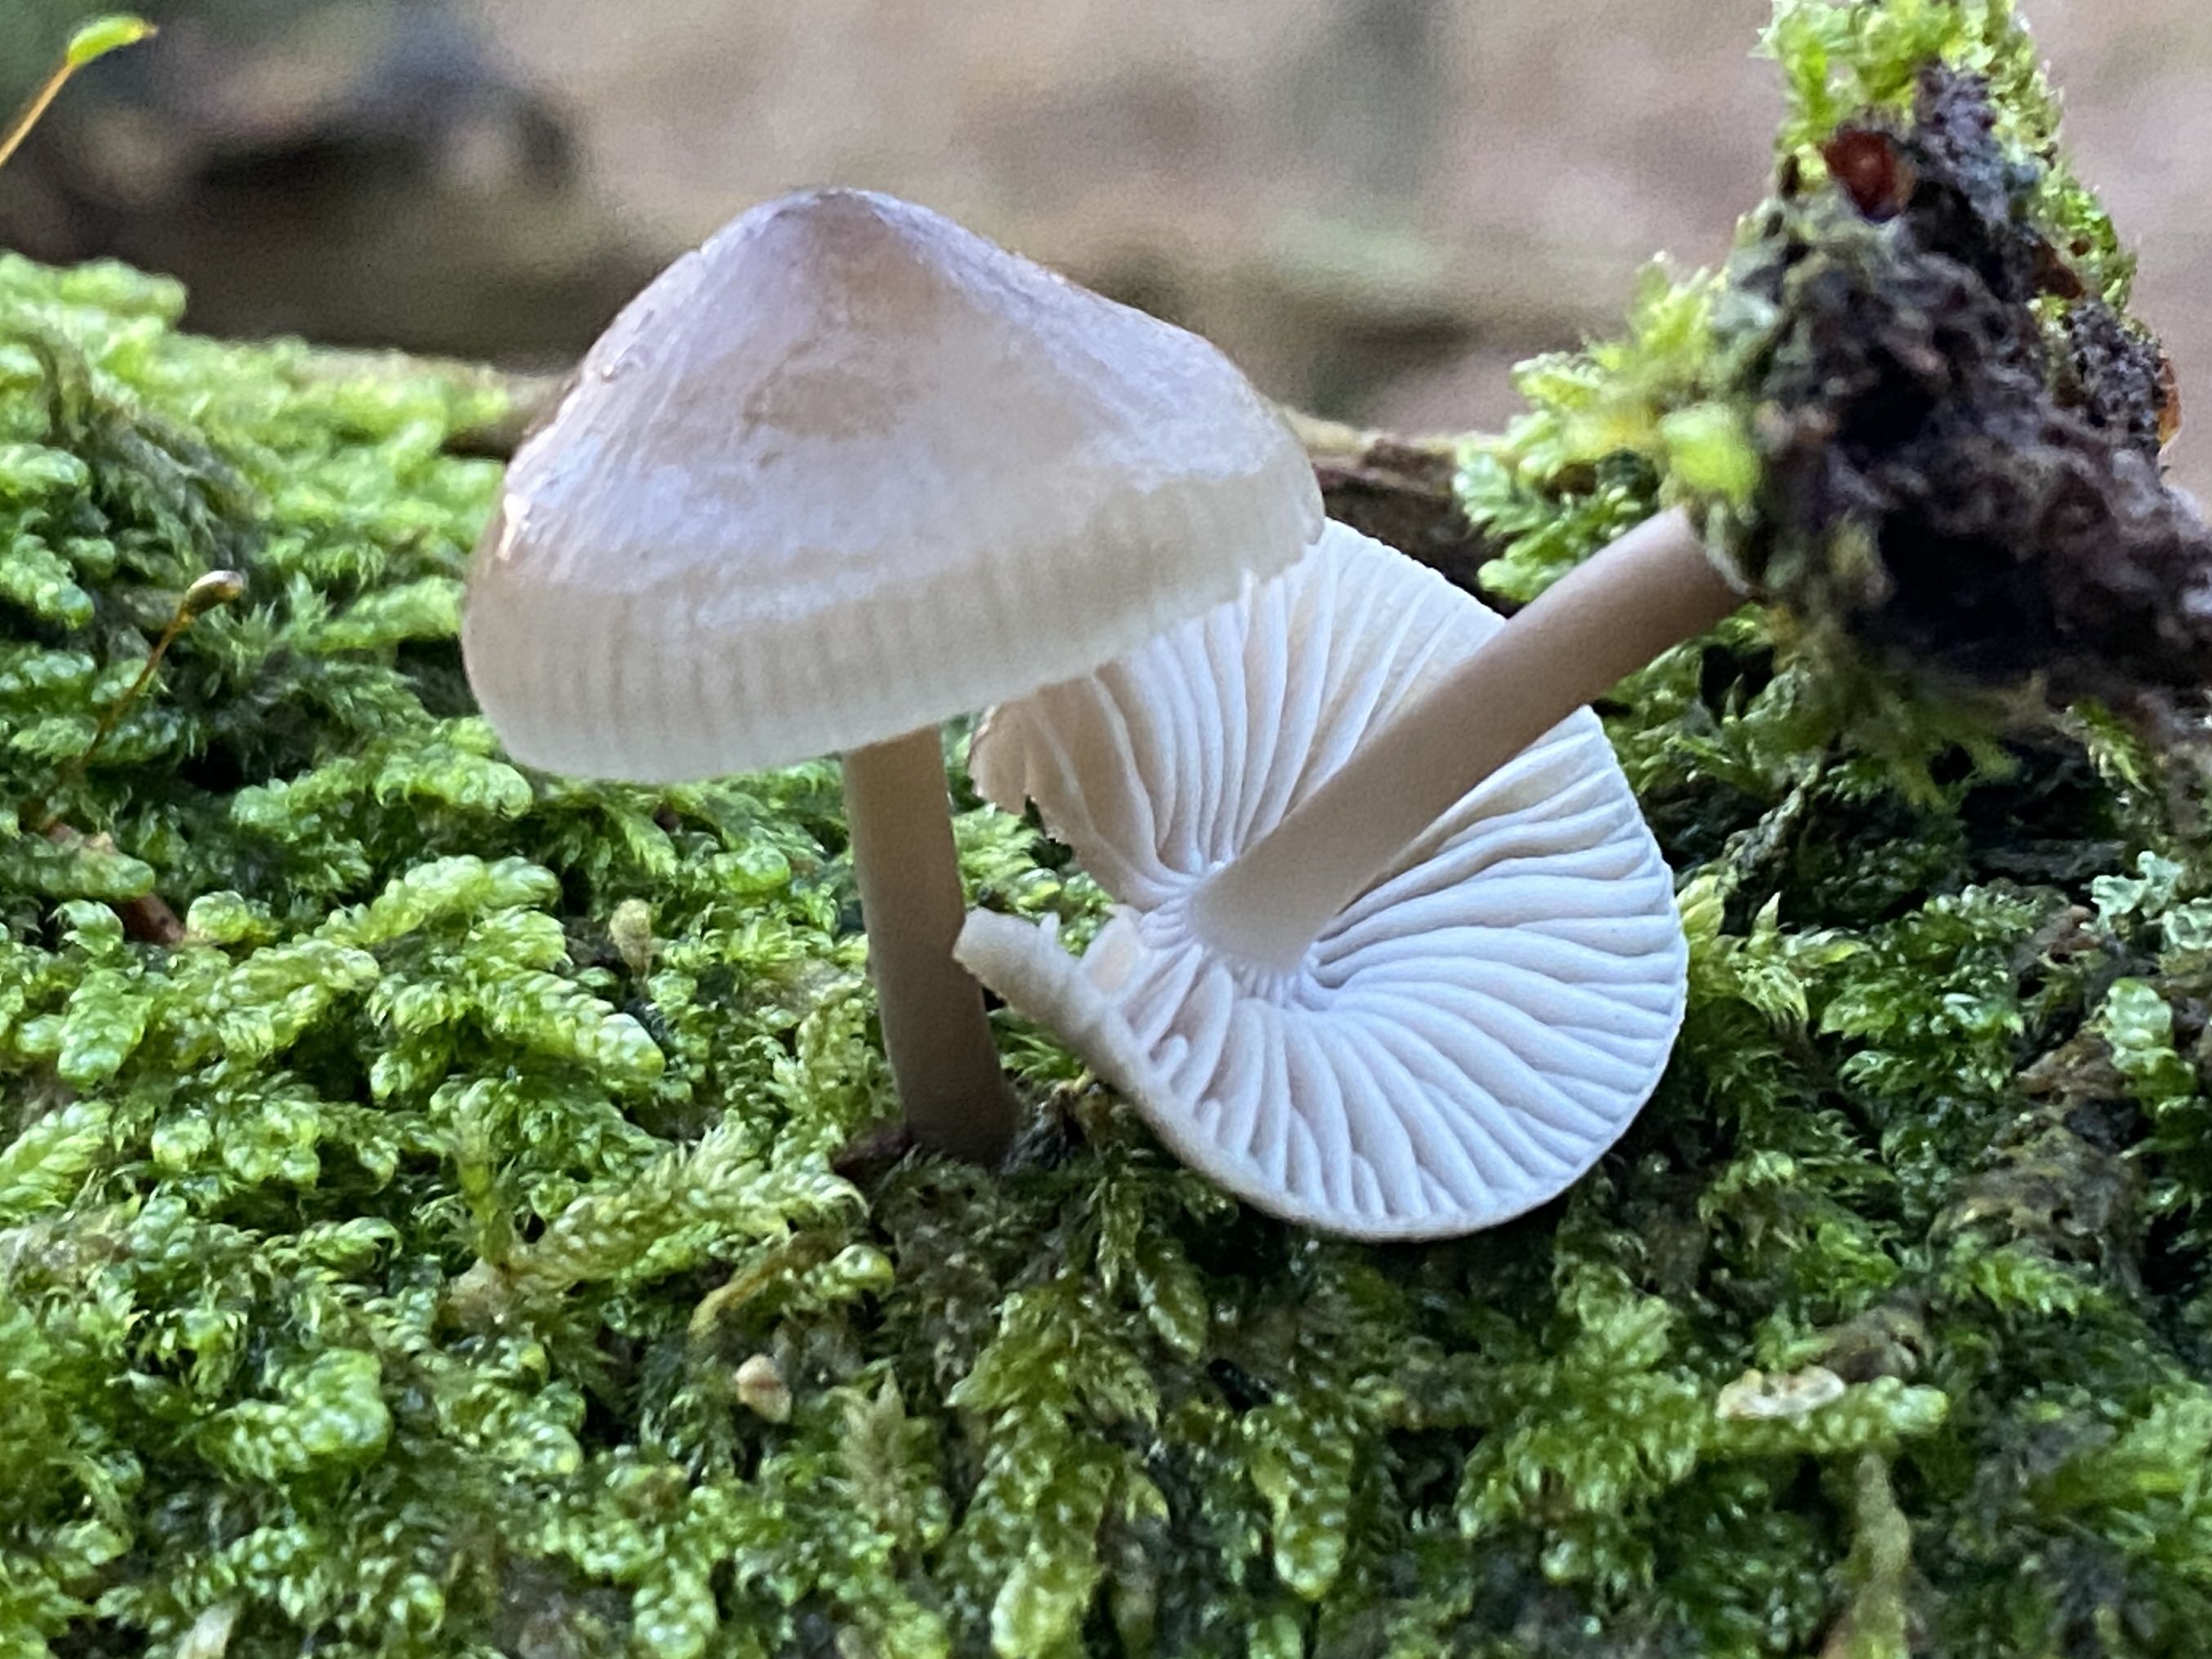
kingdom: Fungi
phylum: Basidiomycota
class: Agaricomycetes
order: Agaricales
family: Mycenaceae
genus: Mycena
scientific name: Mycena galericulata
